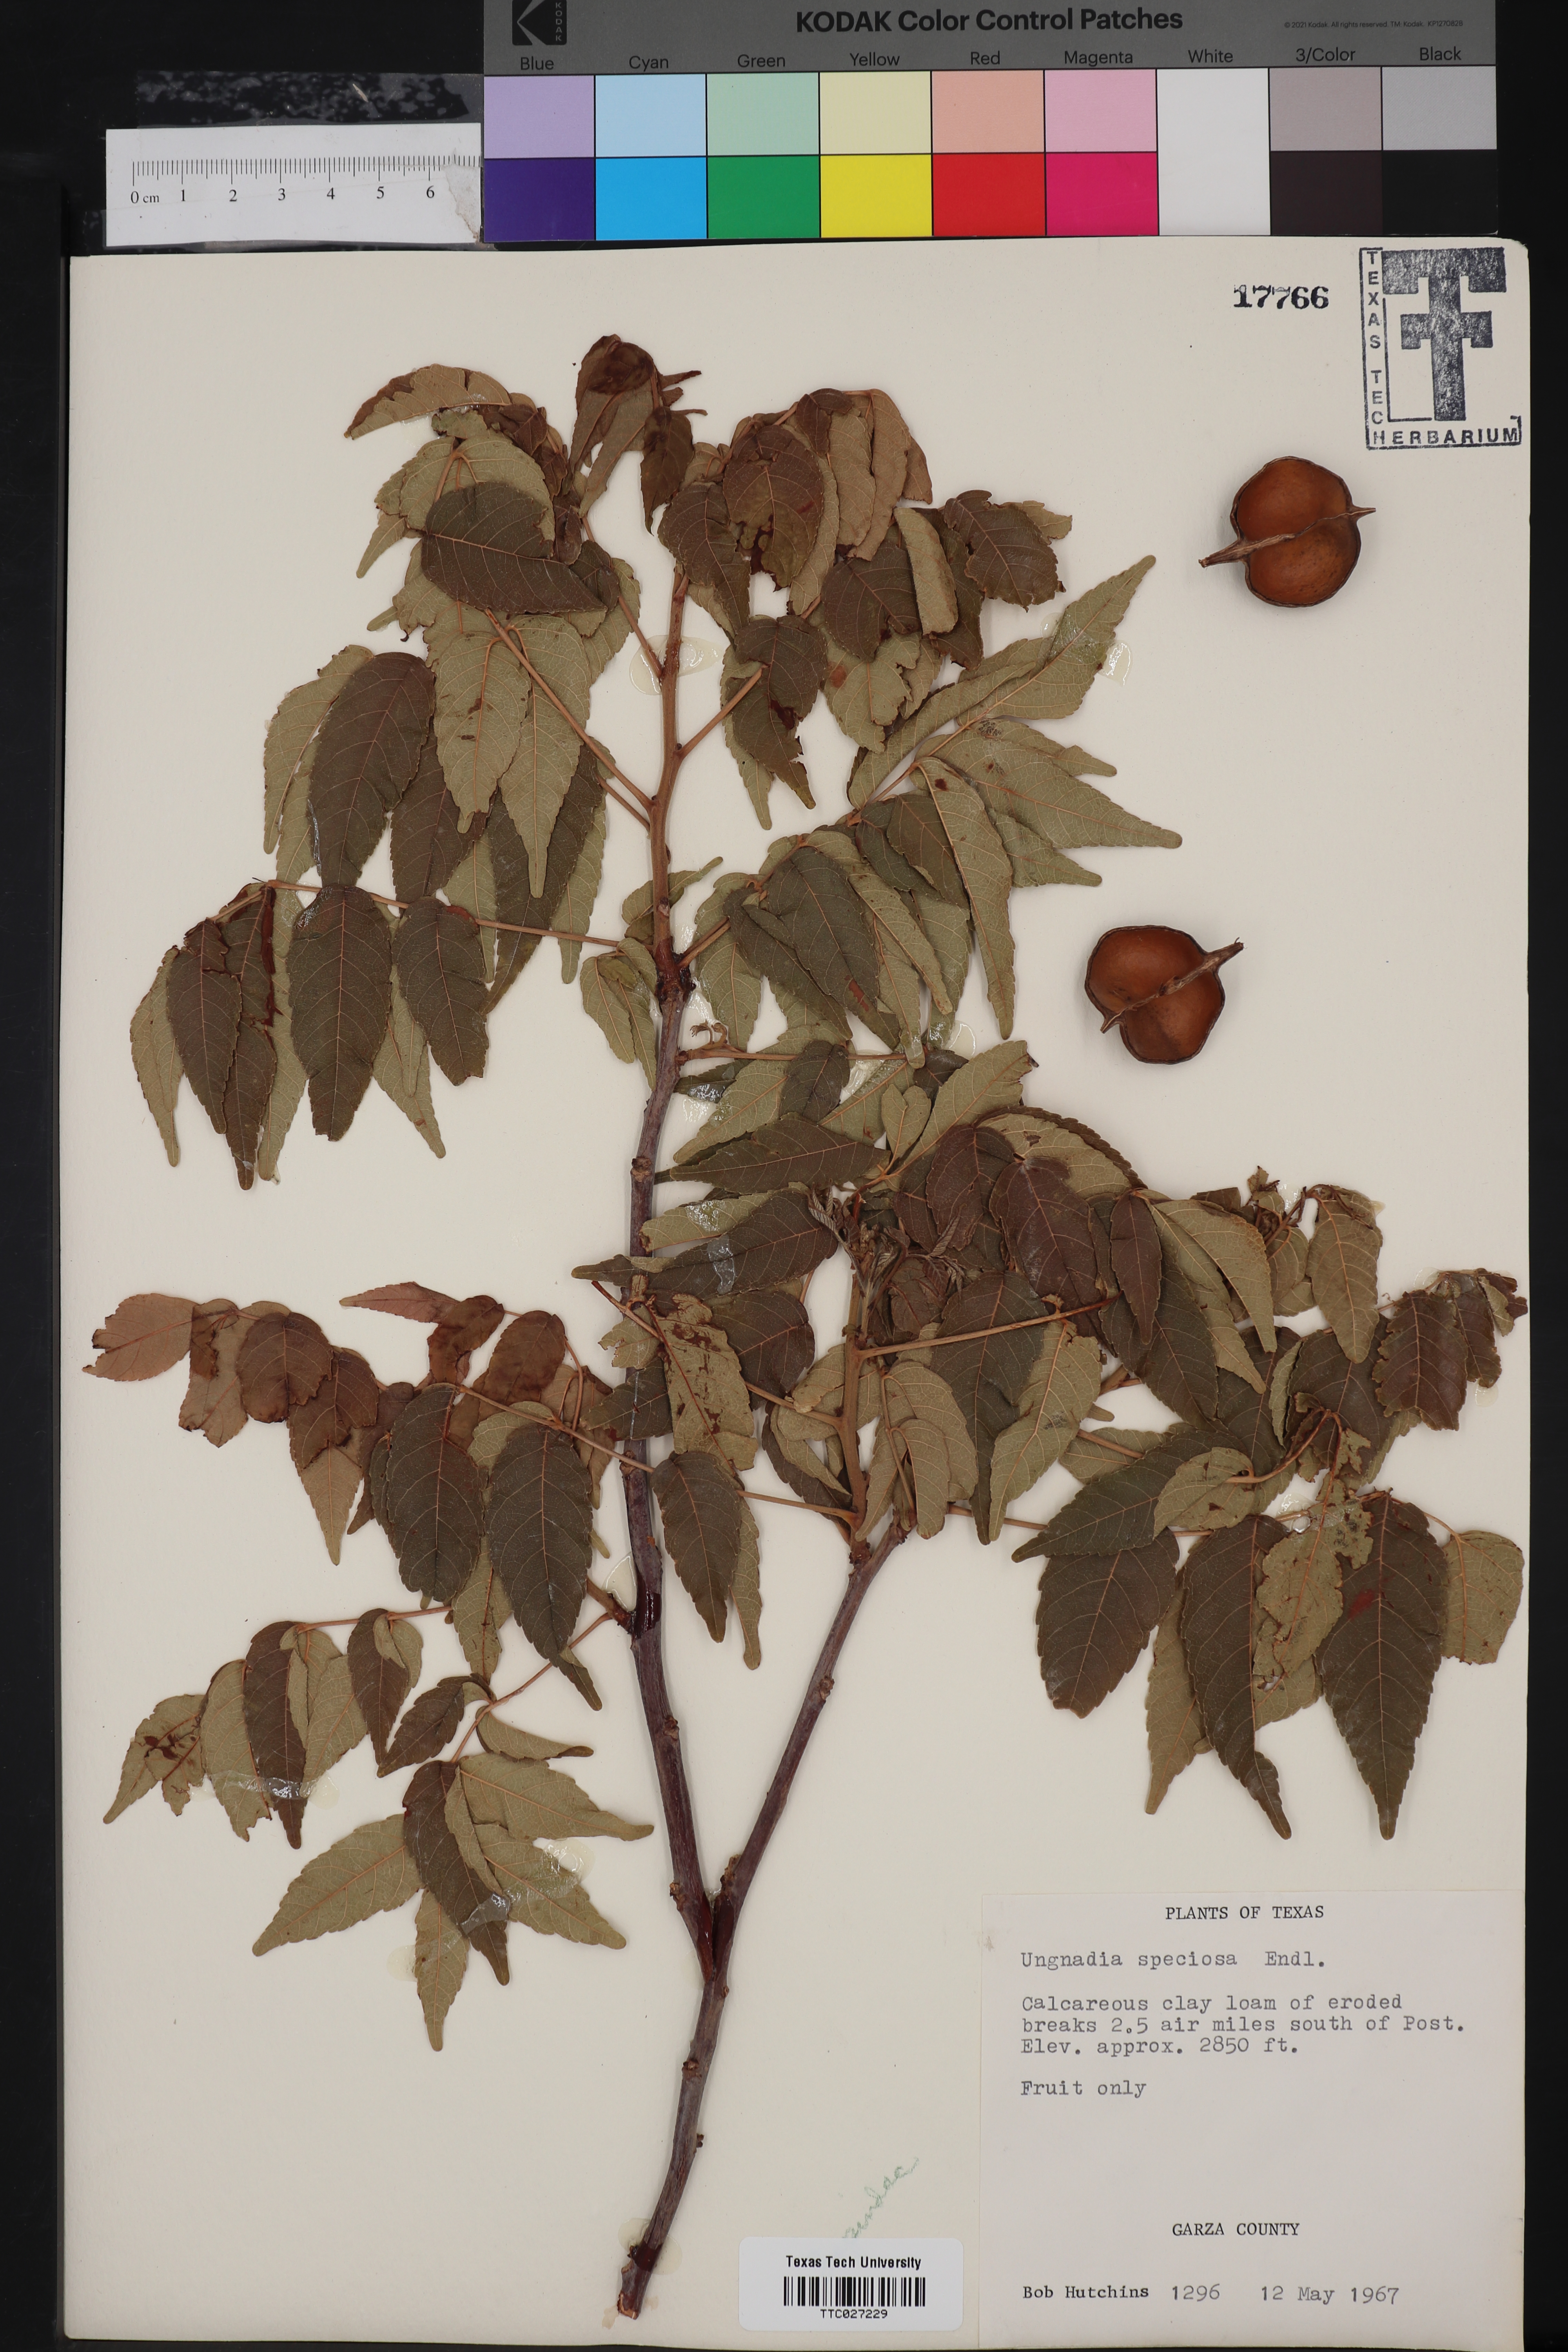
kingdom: Plantae
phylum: Tracheophyta
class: Magnoliopsida
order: Sapindales
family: Sapindaceae
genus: Ungnadia
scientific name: Ungnadia speciosa
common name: Texas-buckeye
